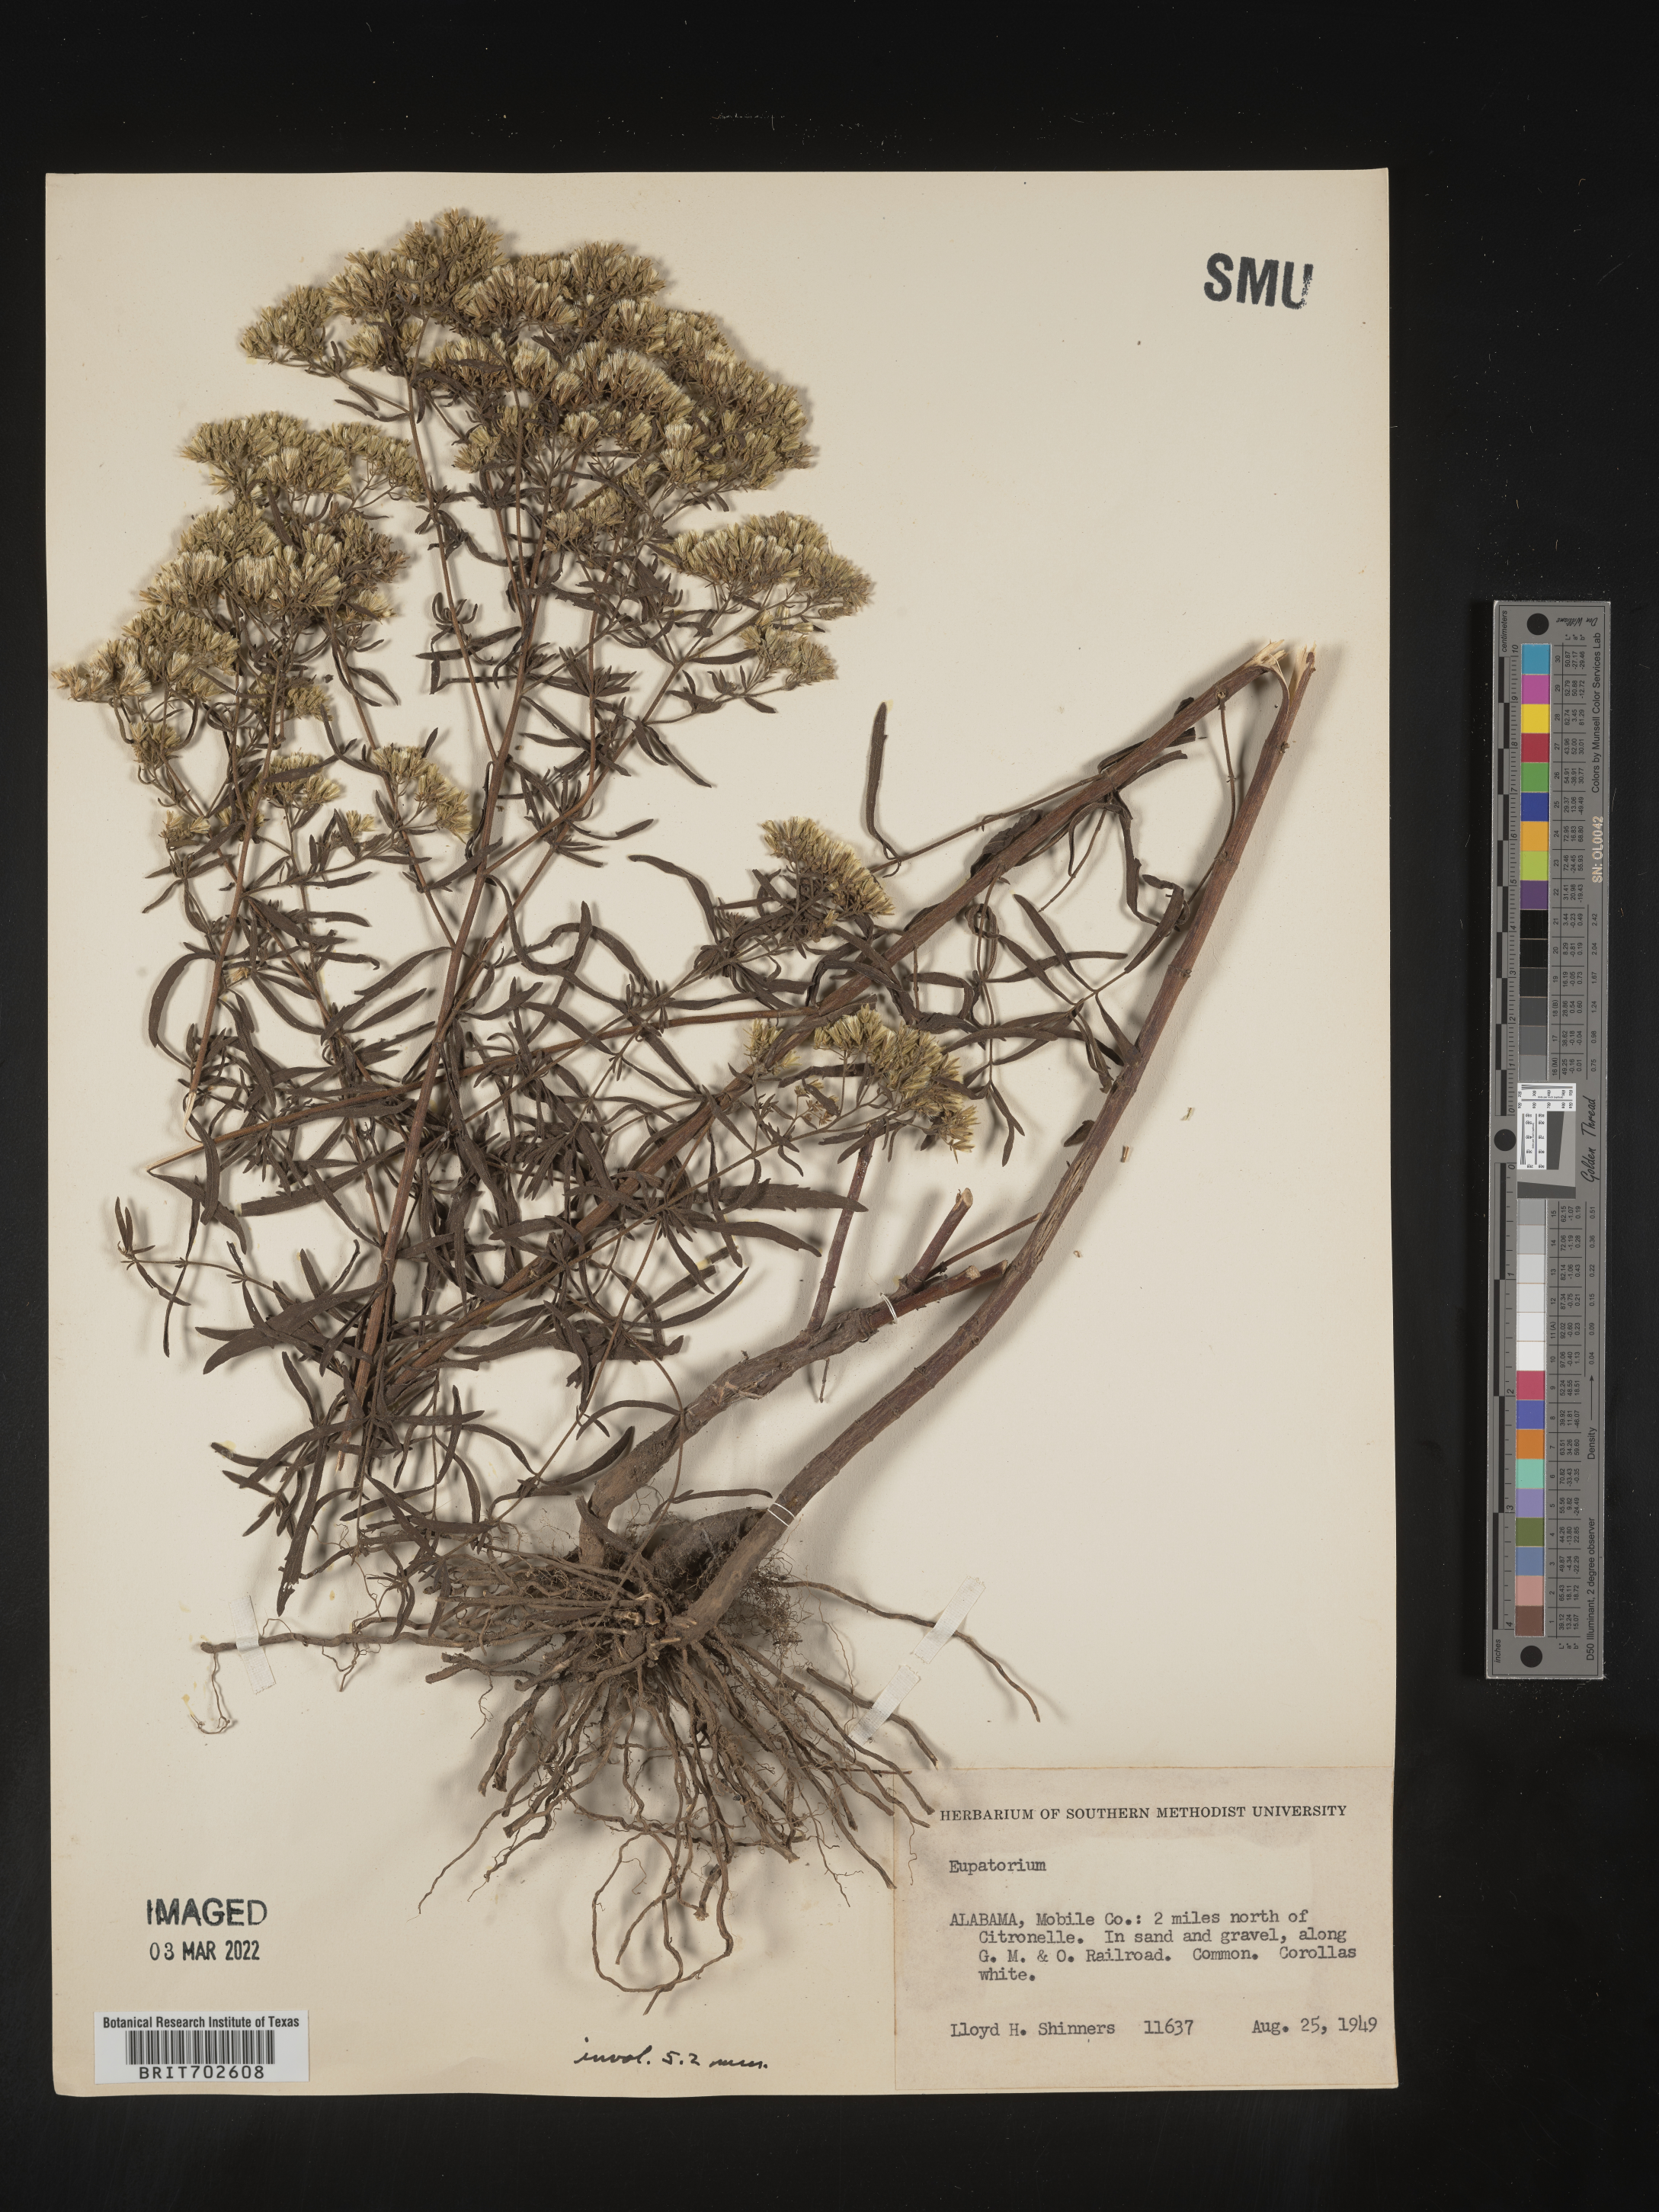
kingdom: Plantae
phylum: Tracheophyta
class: Magnoliopsida
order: Asterales
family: Asteraceae
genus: Eupatorium
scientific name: Eupatorium
